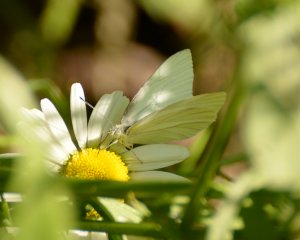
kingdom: Animalia
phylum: Arthropoda
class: Insecta
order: Lepidoptera
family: Pieridae
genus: Pieris
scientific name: Pieris oleracea
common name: Mustard White
